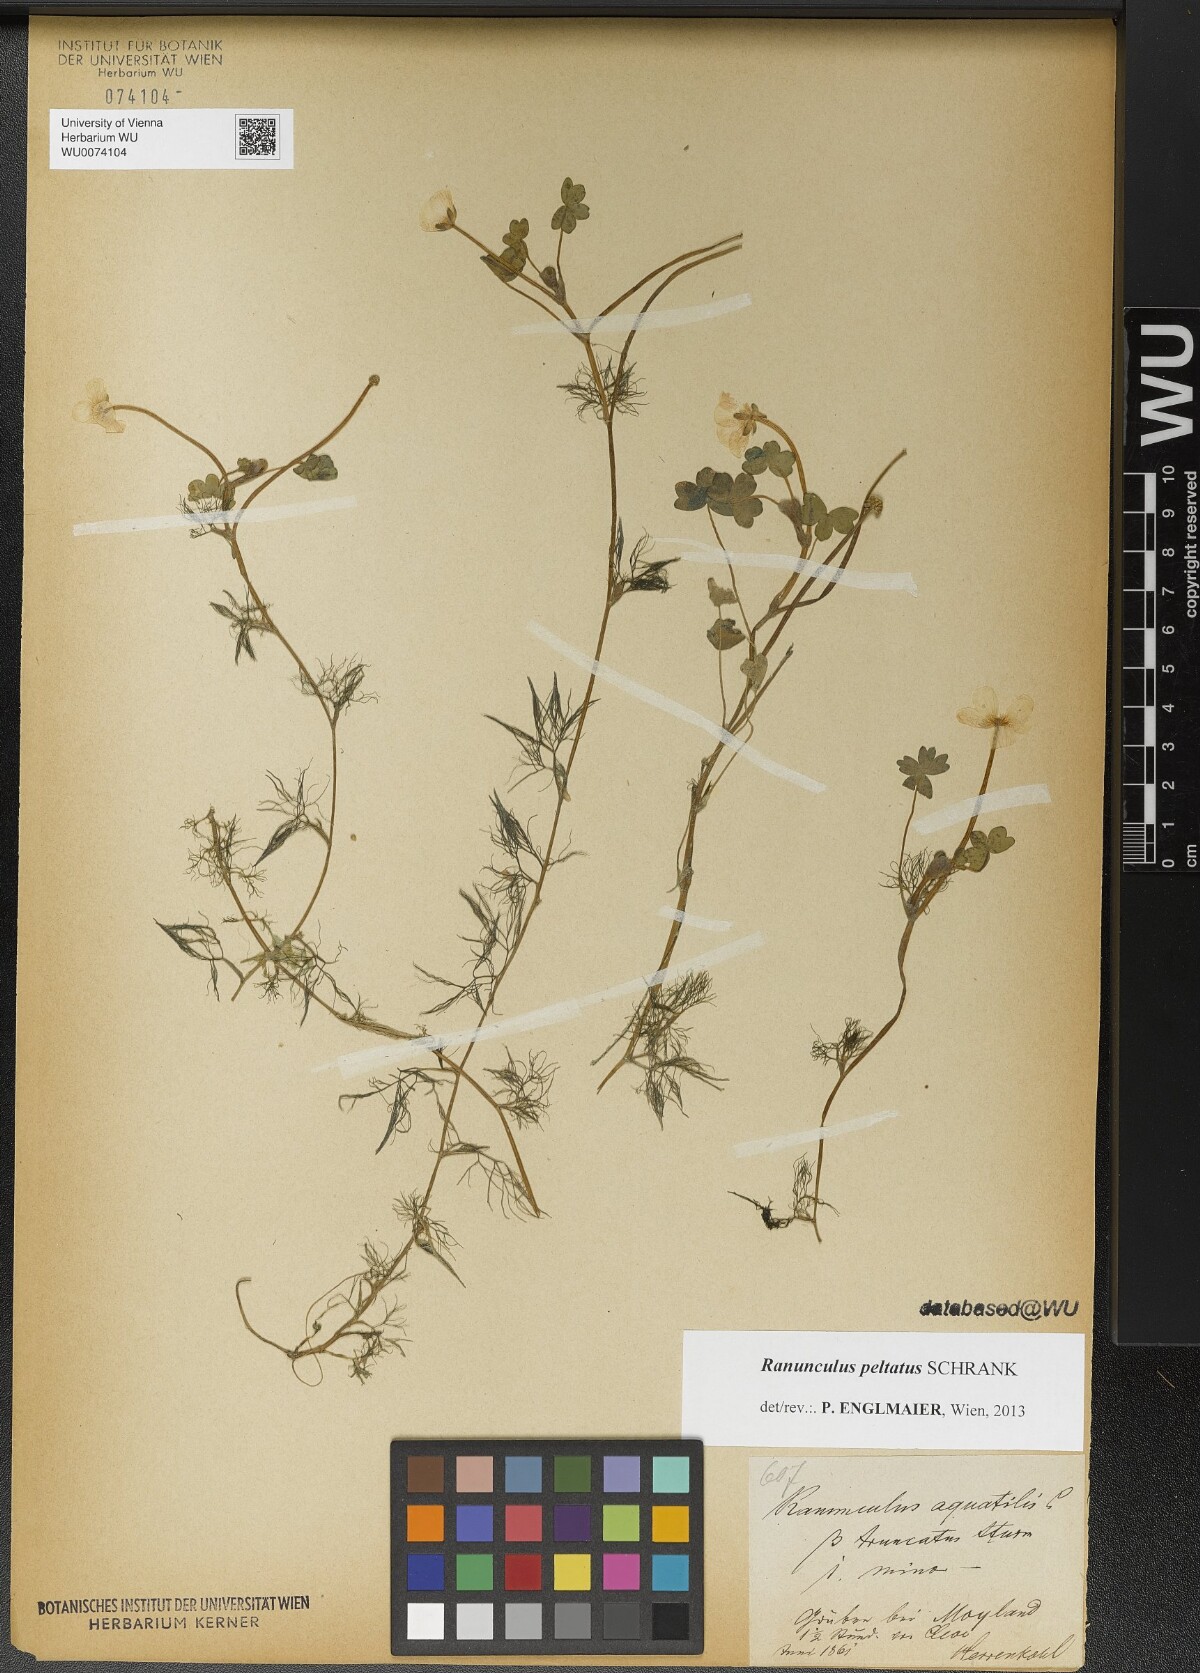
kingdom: Plantae
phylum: Tracheophyta
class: Magnoliopsida
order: Ranunculales
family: Ranunculaceae
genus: Ranunculus
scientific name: Ranunculus peltatus
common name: Pond water-crowfoot
